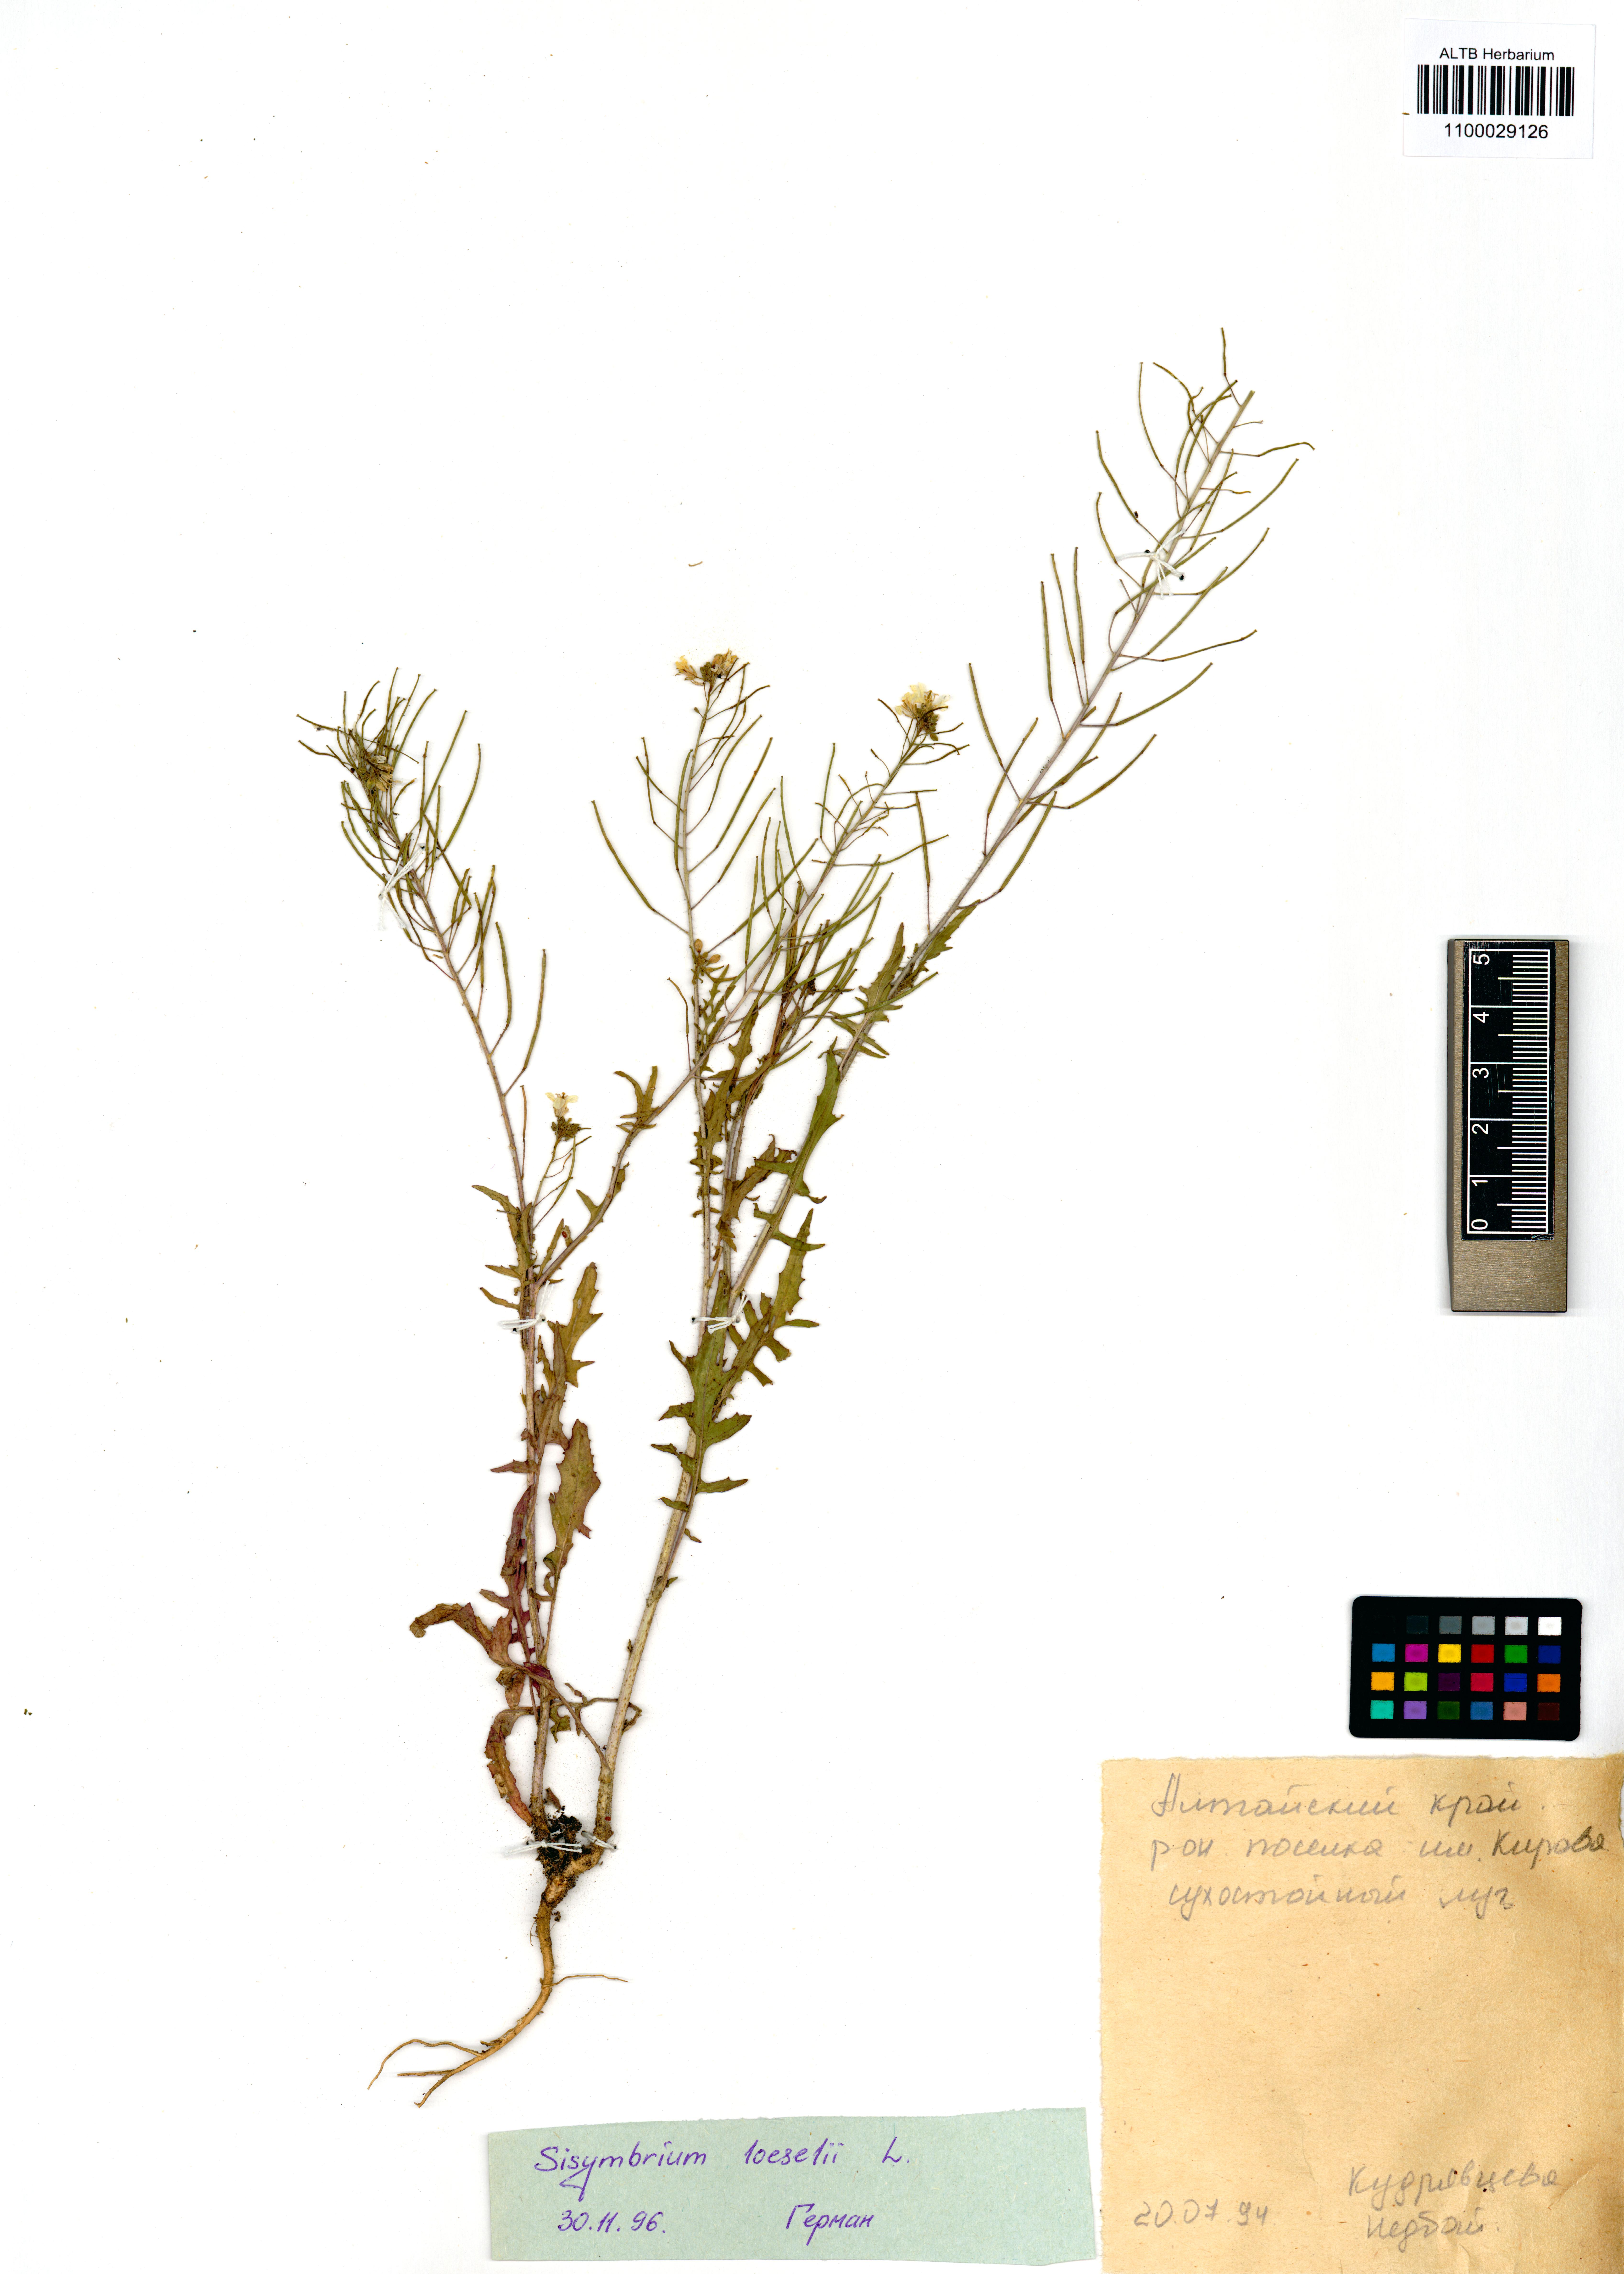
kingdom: Plantae
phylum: Tracheophyta
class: Magnoliopsida
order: Brassicales
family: Brassicaceae
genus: Sisymbrium
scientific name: Sisymbrium loeselii
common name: False london-rocket
